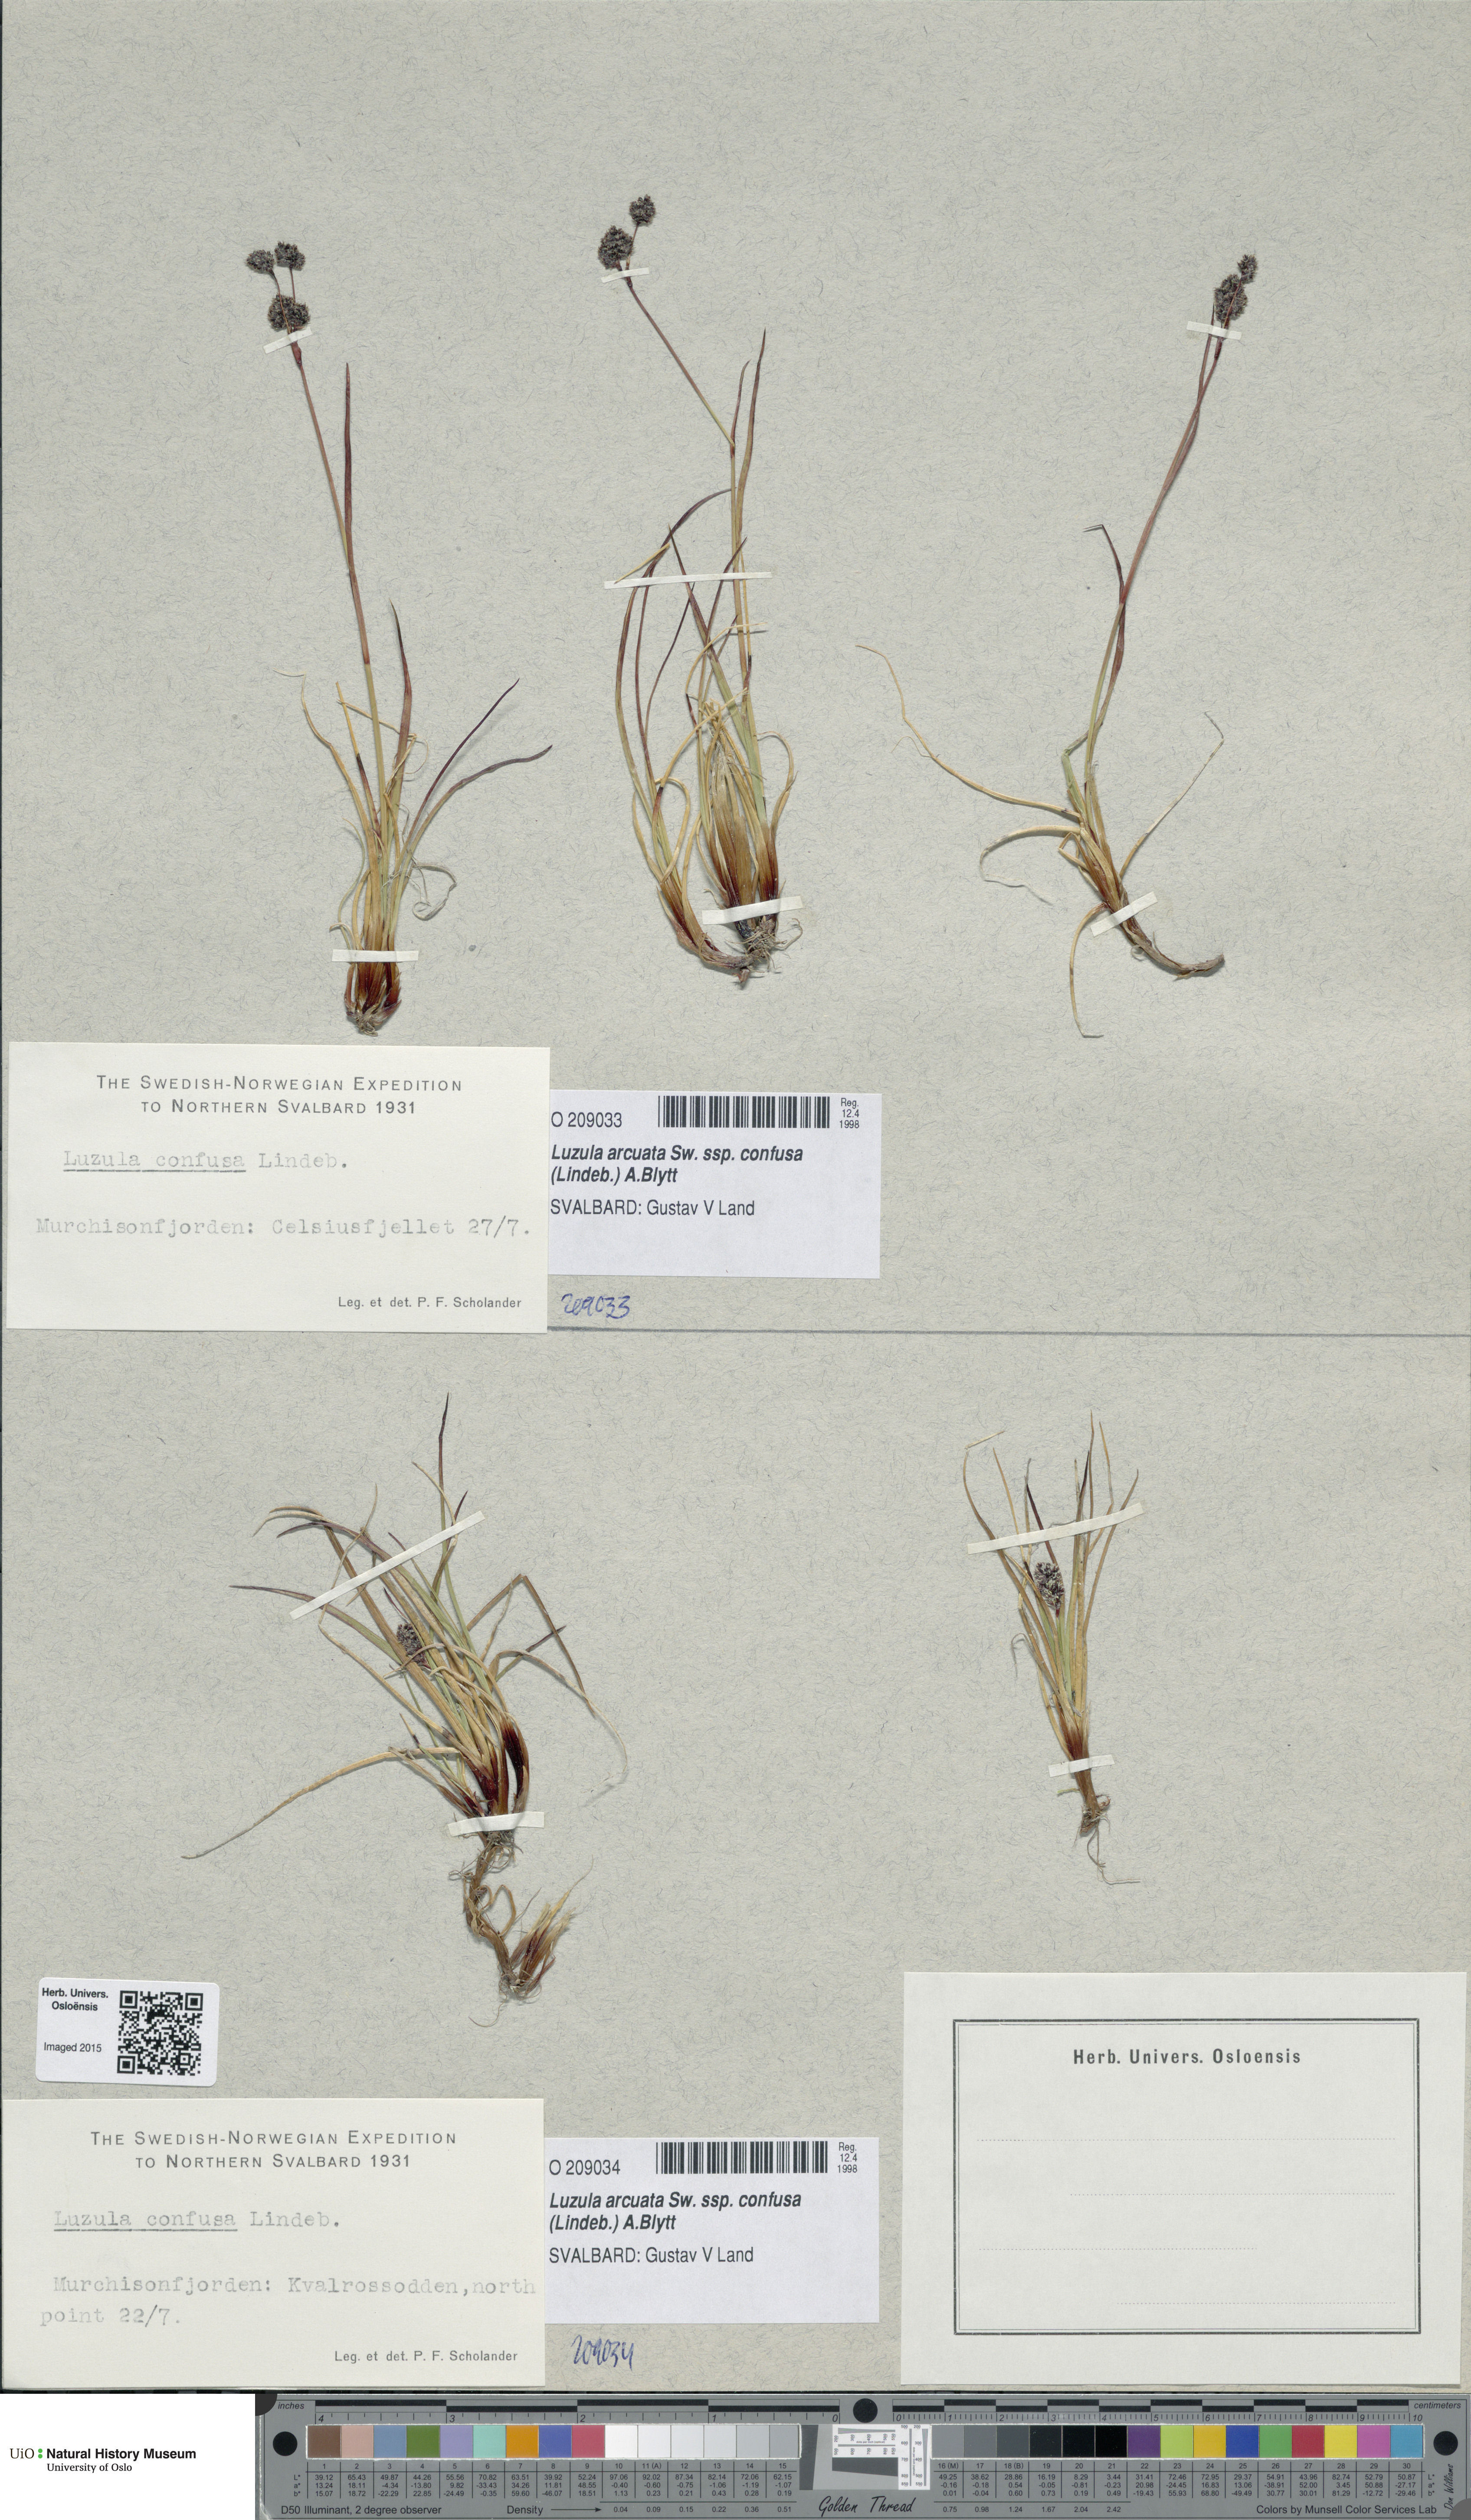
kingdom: Plantae
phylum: Tracheophyta
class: Liliopsida
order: Poales
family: Juncaceae
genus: Luzula
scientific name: Luzula confusa
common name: Northern wood rush
